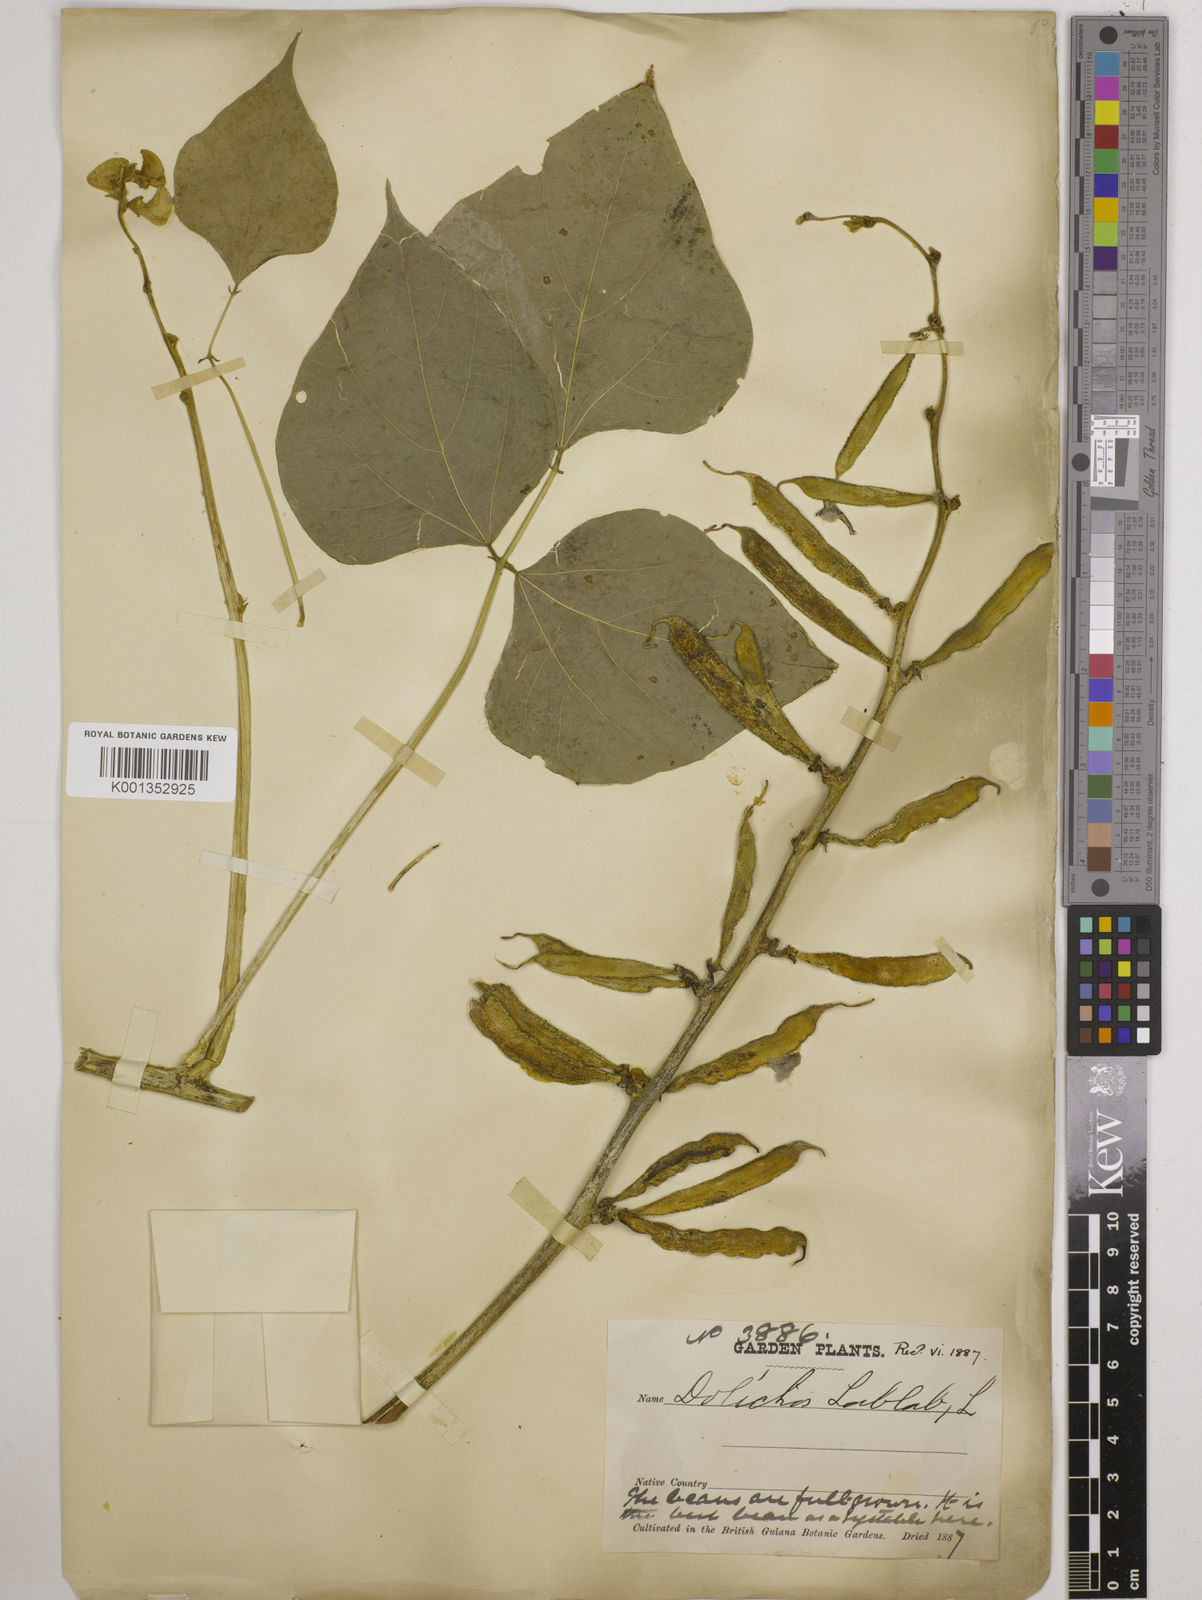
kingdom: Plantae
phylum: Tracheophyta
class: Magnoliopsida
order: Fabales
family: Fabaceae
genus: Lablab
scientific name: Lablab purpureus
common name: Lablab-bean
